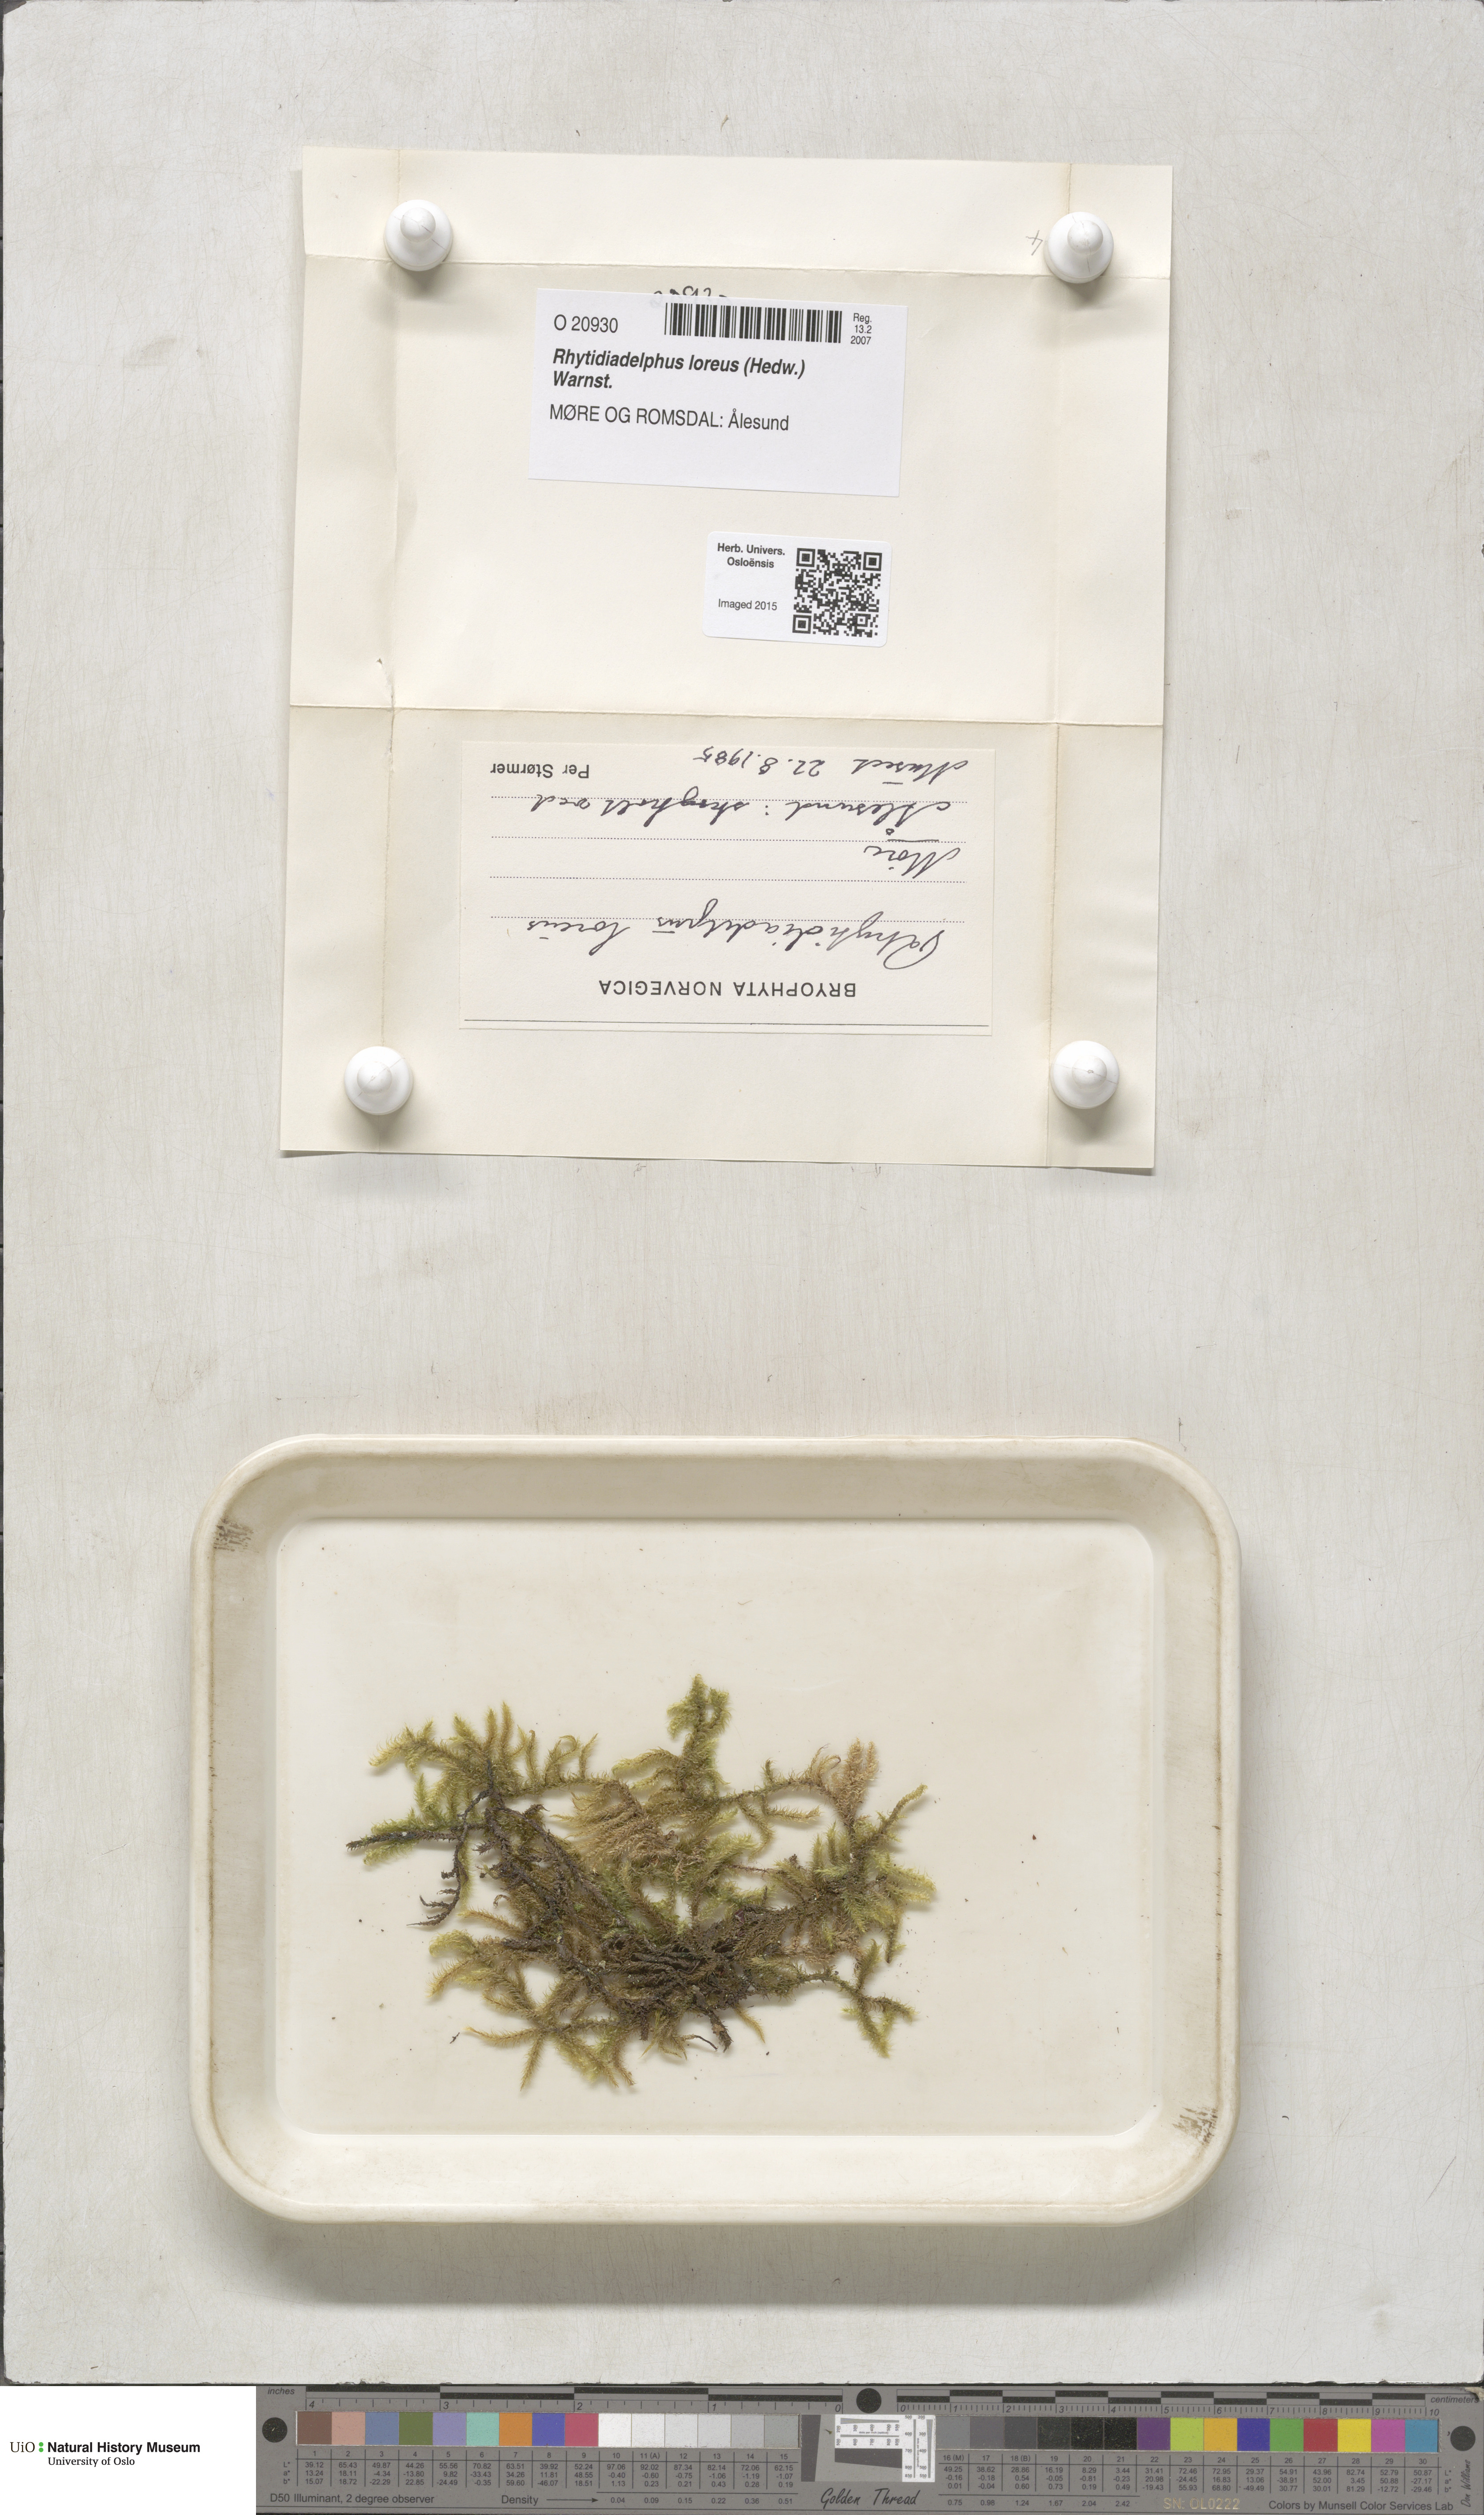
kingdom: Plantae
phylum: Bryophyta
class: Bryopsida
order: Hypnales
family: Hylocomiaceae
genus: Rhytidiadelphus
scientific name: Rhytidiadelphus loreus
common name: Lanky moss
